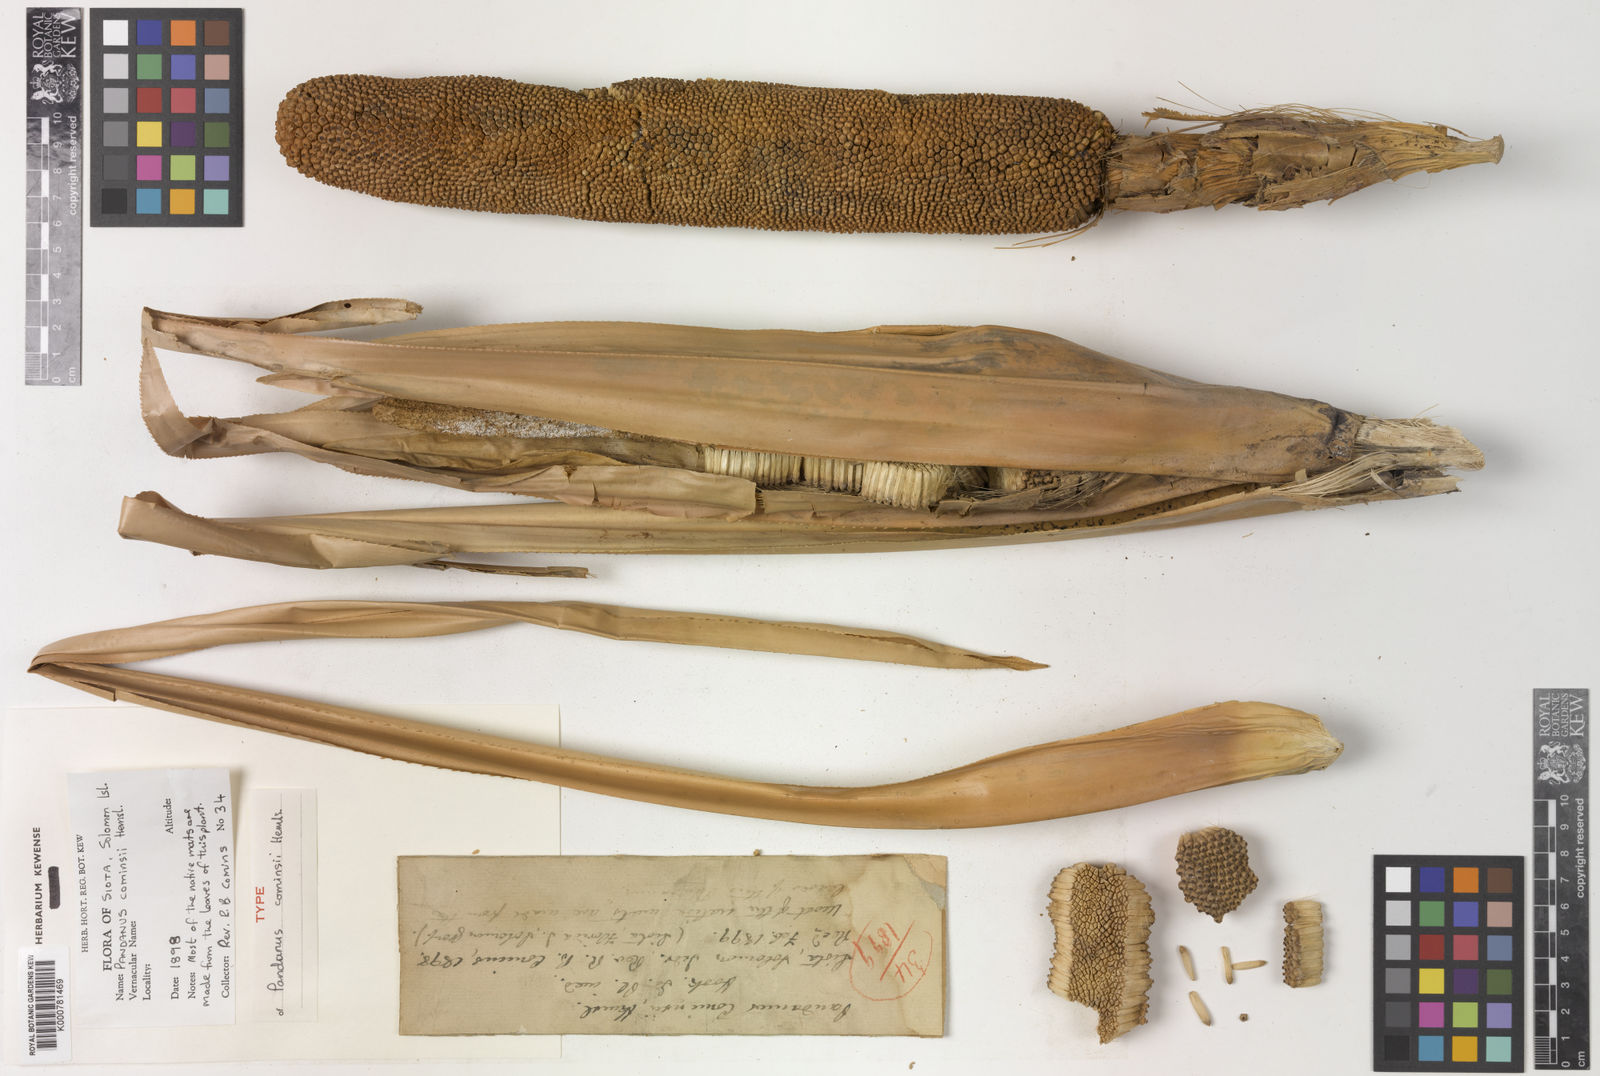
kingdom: Plantae
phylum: Tracheophyta
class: Liliopsida
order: Pandanales
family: Pandanaceae
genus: Pandanus
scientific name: Pandanus conoideus
